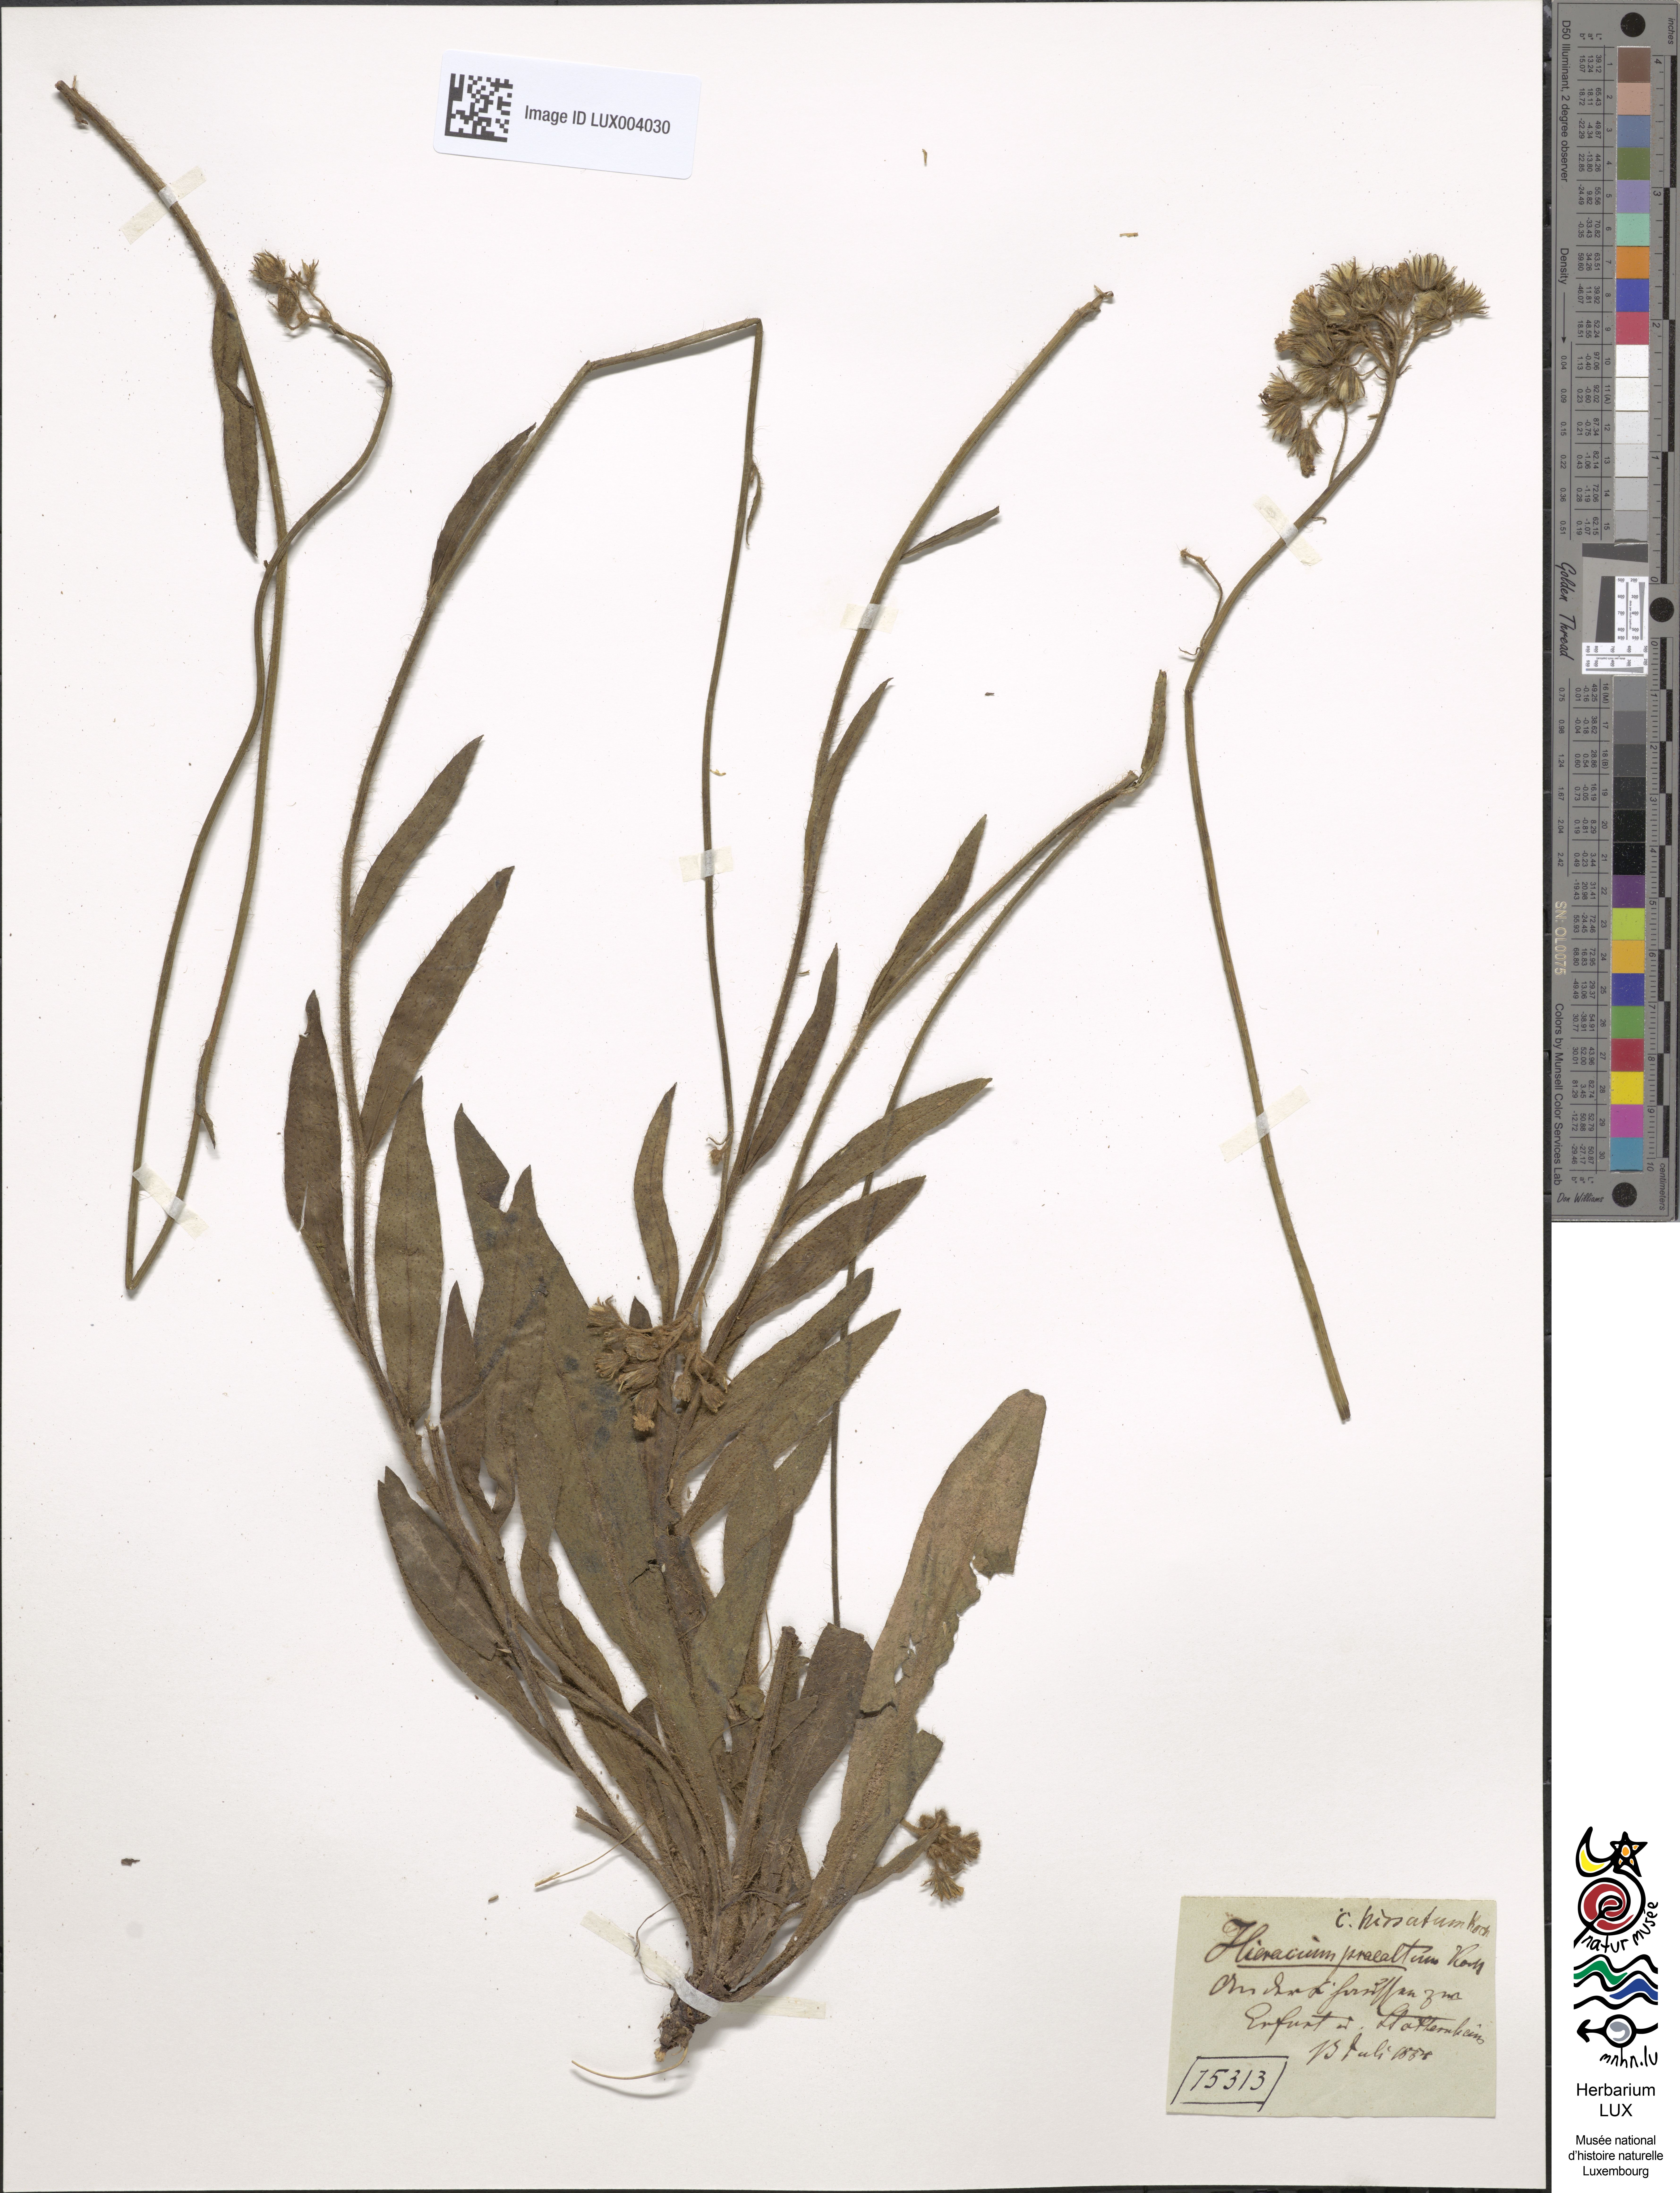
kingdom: Plantae
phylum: Tracheophyta
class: Magnoliopsida
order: Asterales
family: Asteraceae
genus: Pilosella
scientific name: Pilosella piloselloides
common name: Glaucous king-devil
